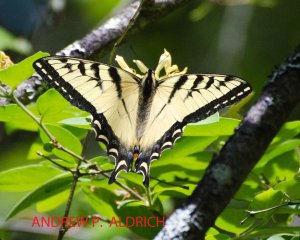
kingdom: Animalia
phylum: Arthropoda
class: Insecta
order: Lepidoptera
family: Papilionidae
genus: Pterourus
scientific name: Pterourus canadensis
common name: Canadian Tiger Swallowtail
